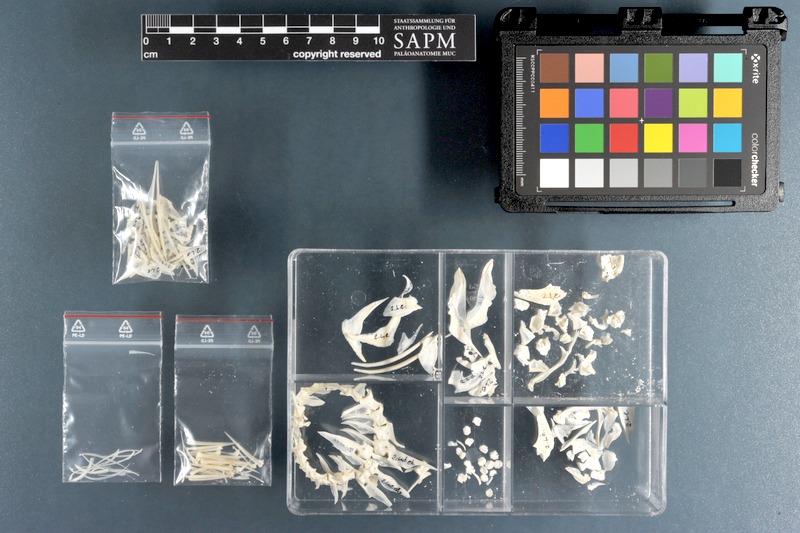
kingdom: Animalia
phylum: Chordata
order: Perciformes
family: Lutjanidae
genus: Lutjanus
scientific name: Lutjanus ehrenbergii
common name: Blackspot snapper
